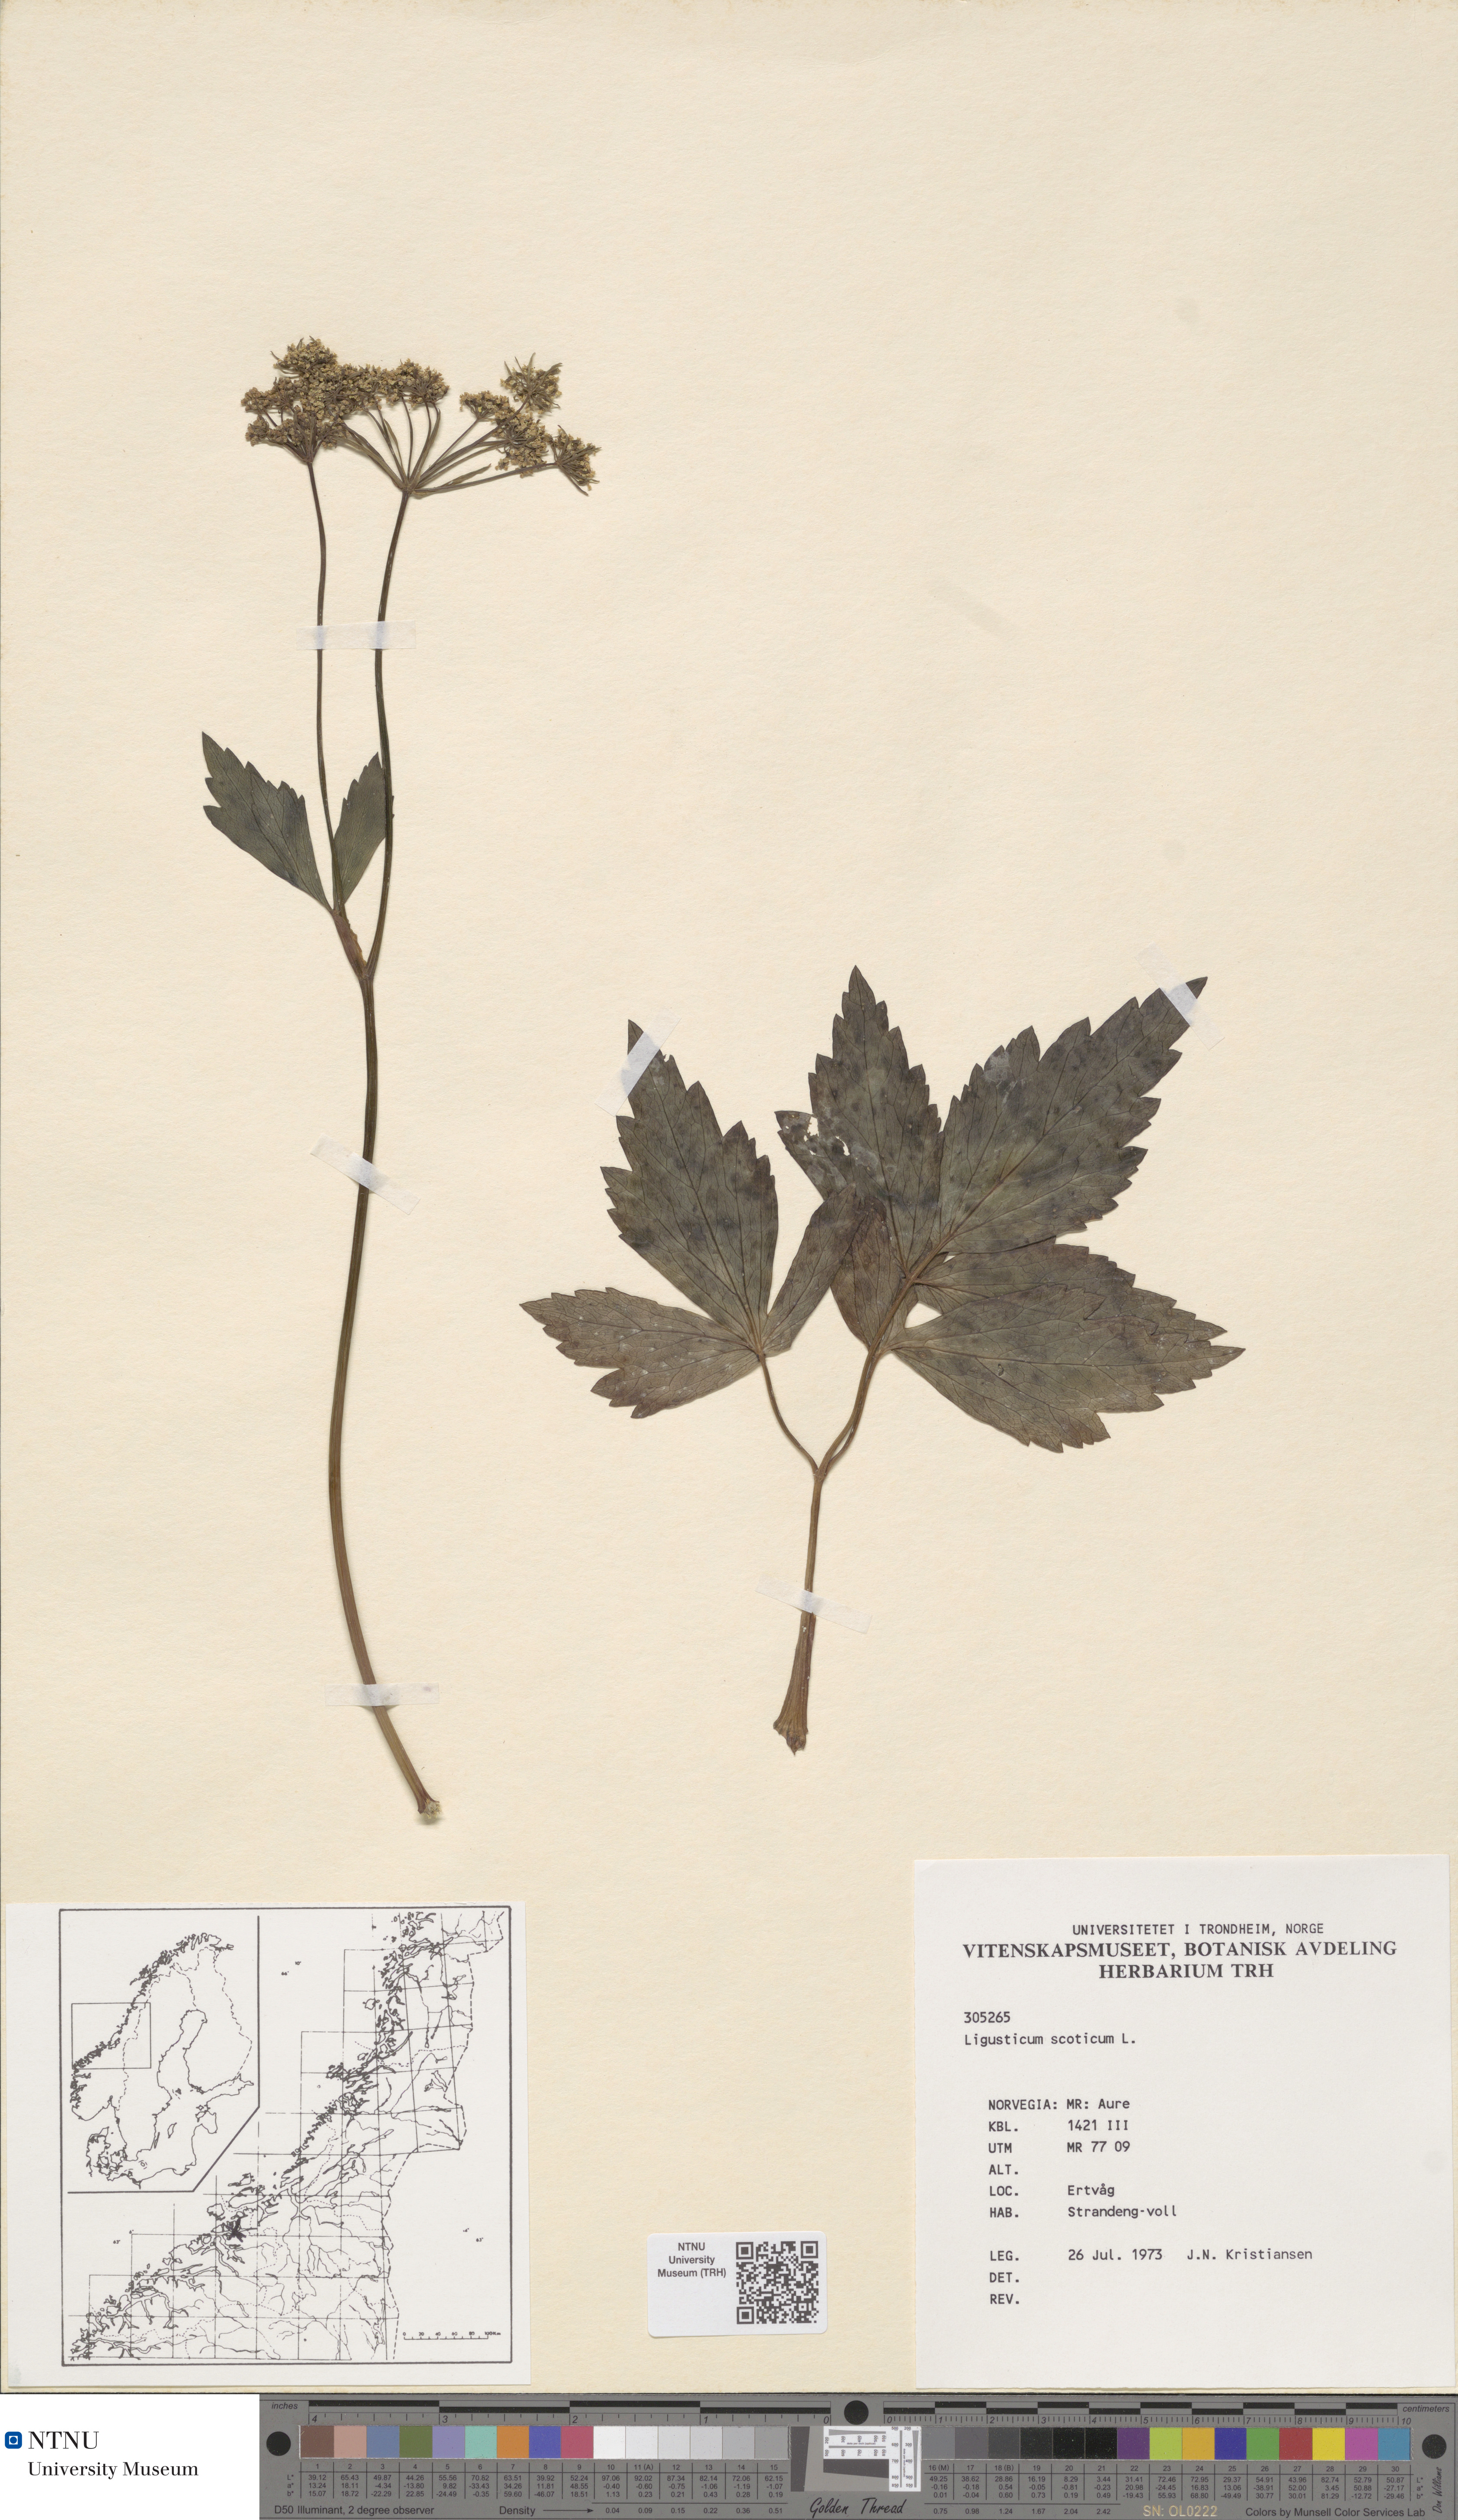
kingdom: Plantae
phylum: Tracheophyta
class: Magnoliopsida
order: Apiales
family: Apiaceae
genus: Ligusticum
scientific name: Ligusticum scothicum
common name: Beach lovage
